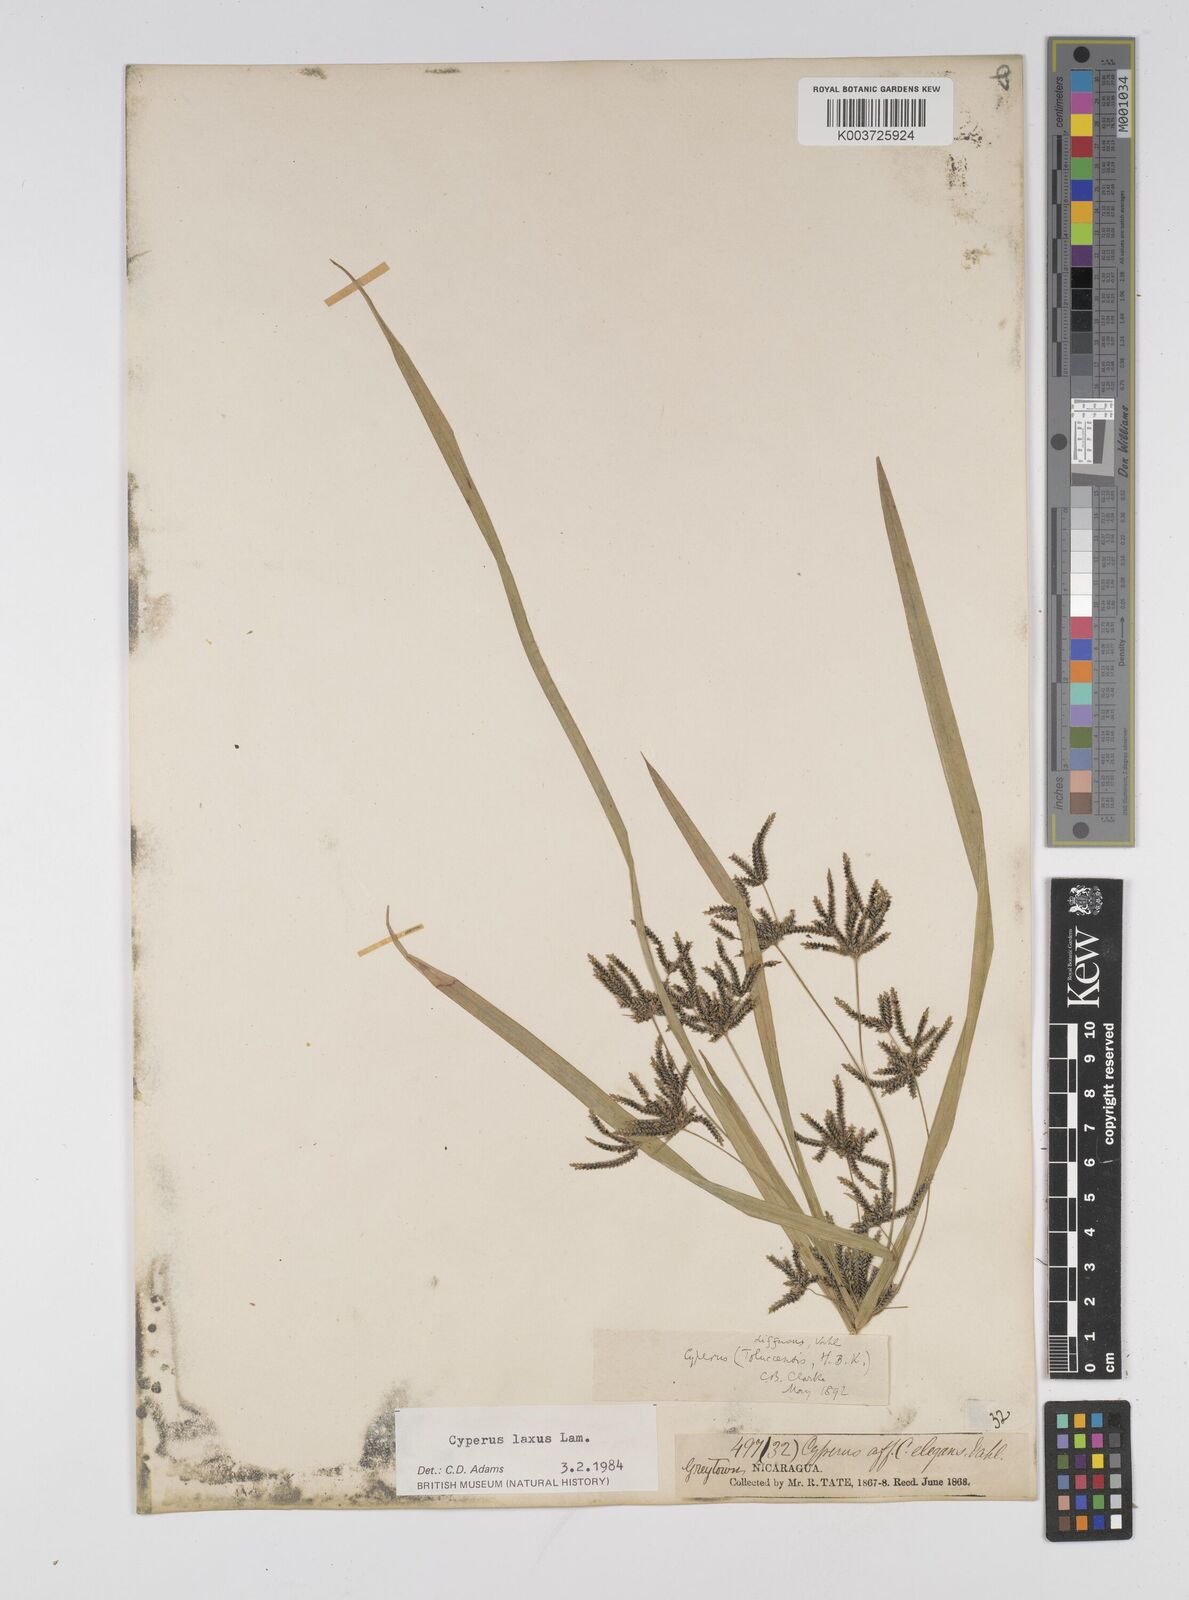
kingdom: Plantae
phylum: Tracheophyta
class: Liliopsida
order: Poales
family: Cyperaceae
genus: Cyperus
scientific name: Cyperus chalaranthus
